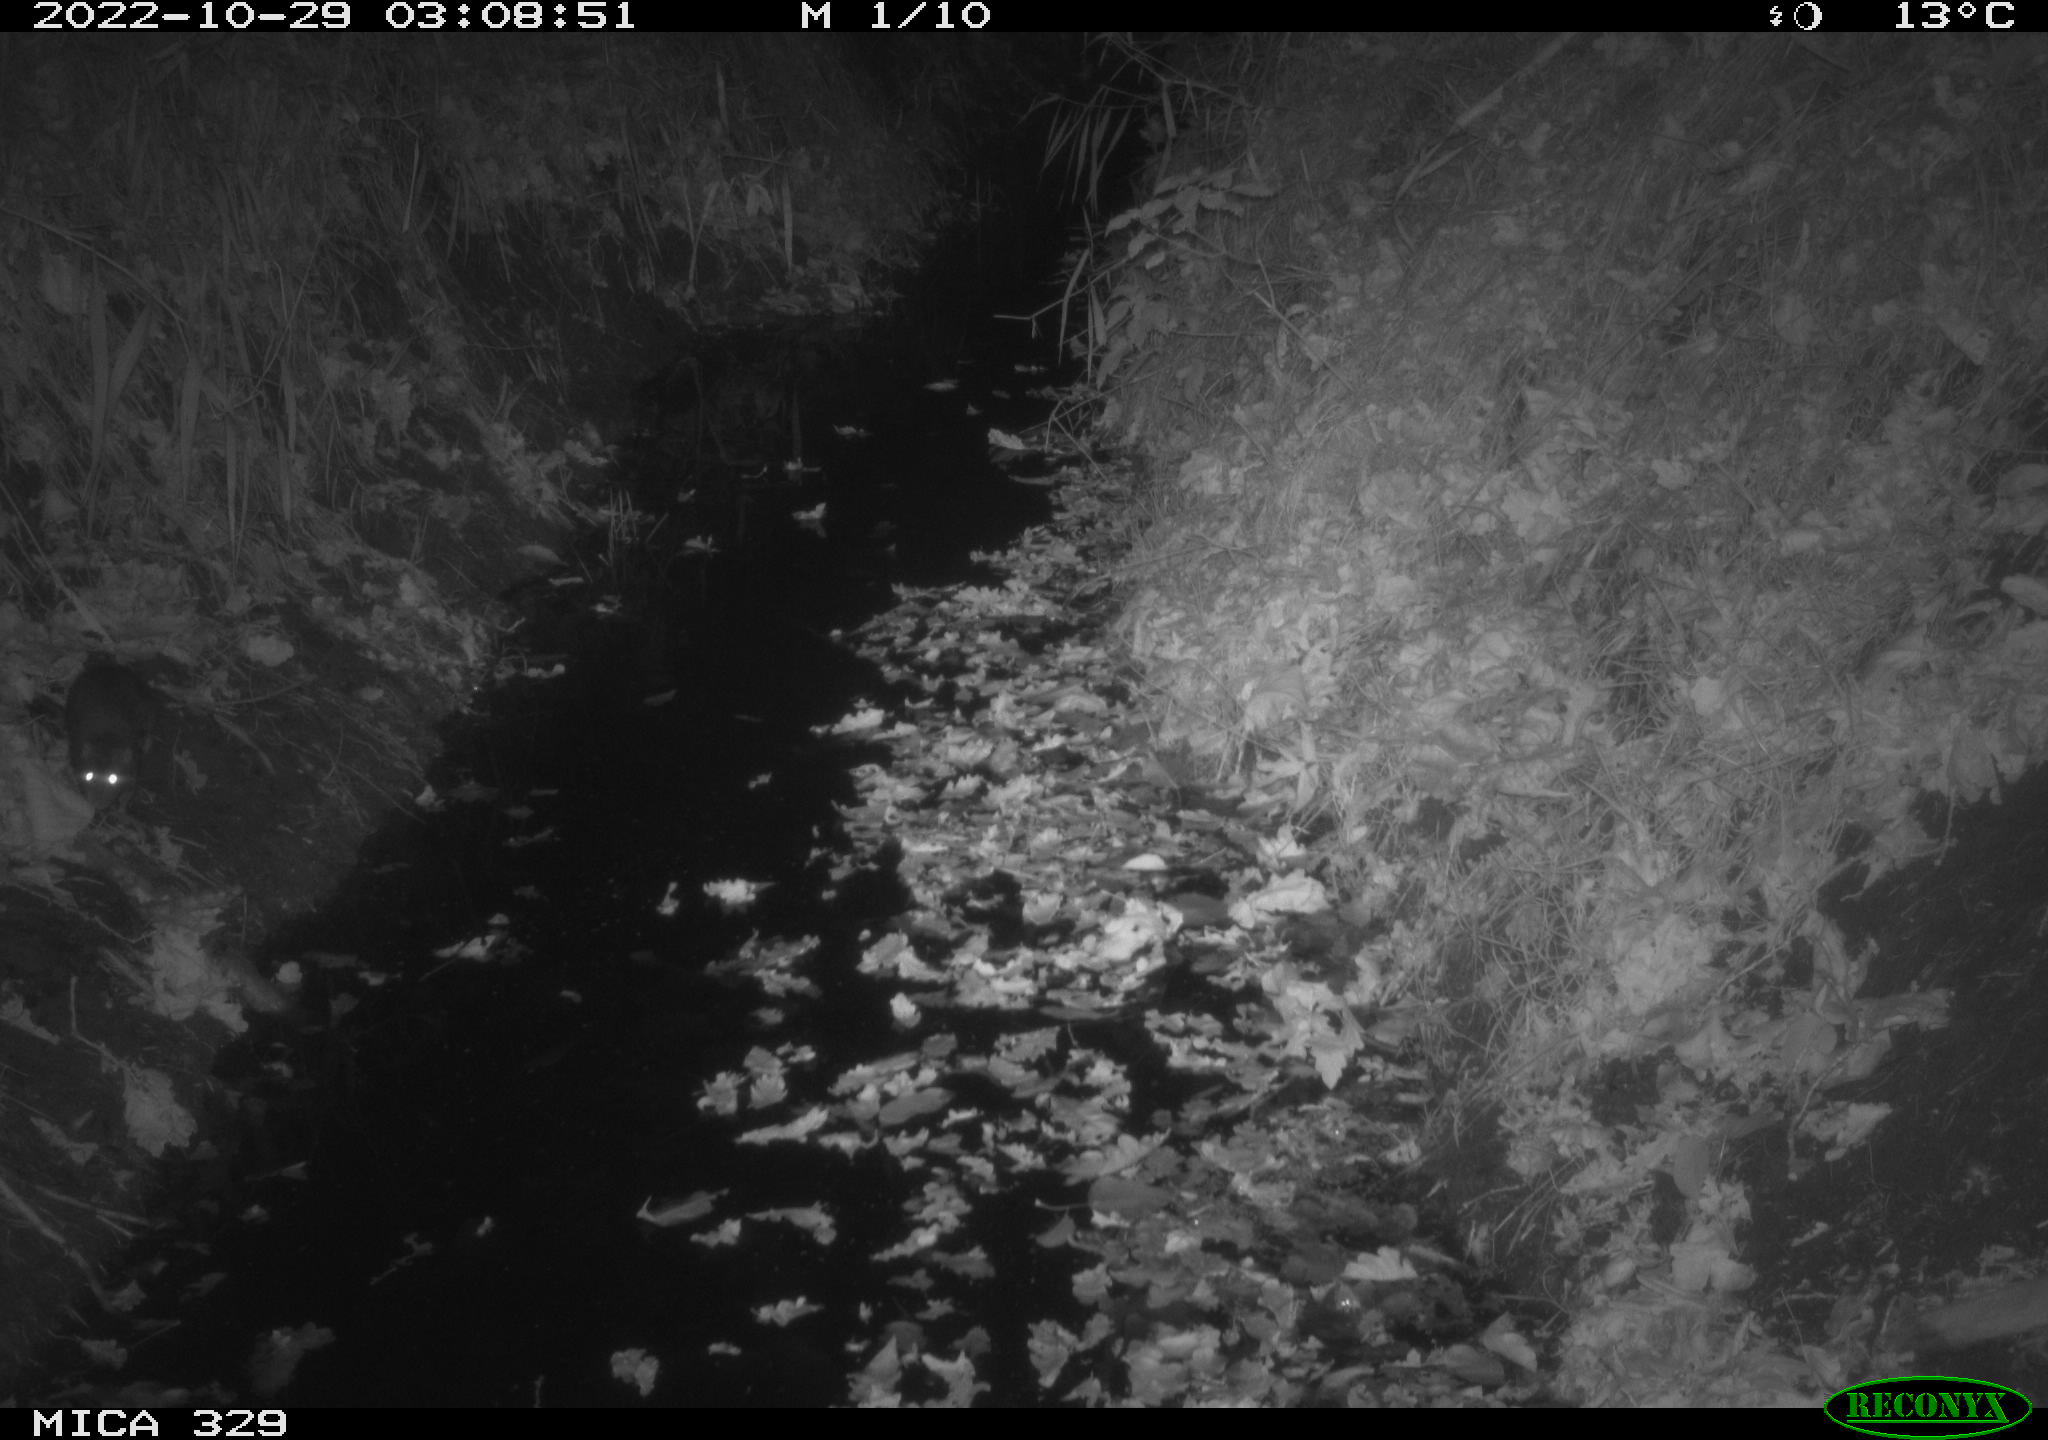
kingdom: Animalia
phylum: Chordata
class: Mammalia
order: Rodentia
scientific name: Rodentia
